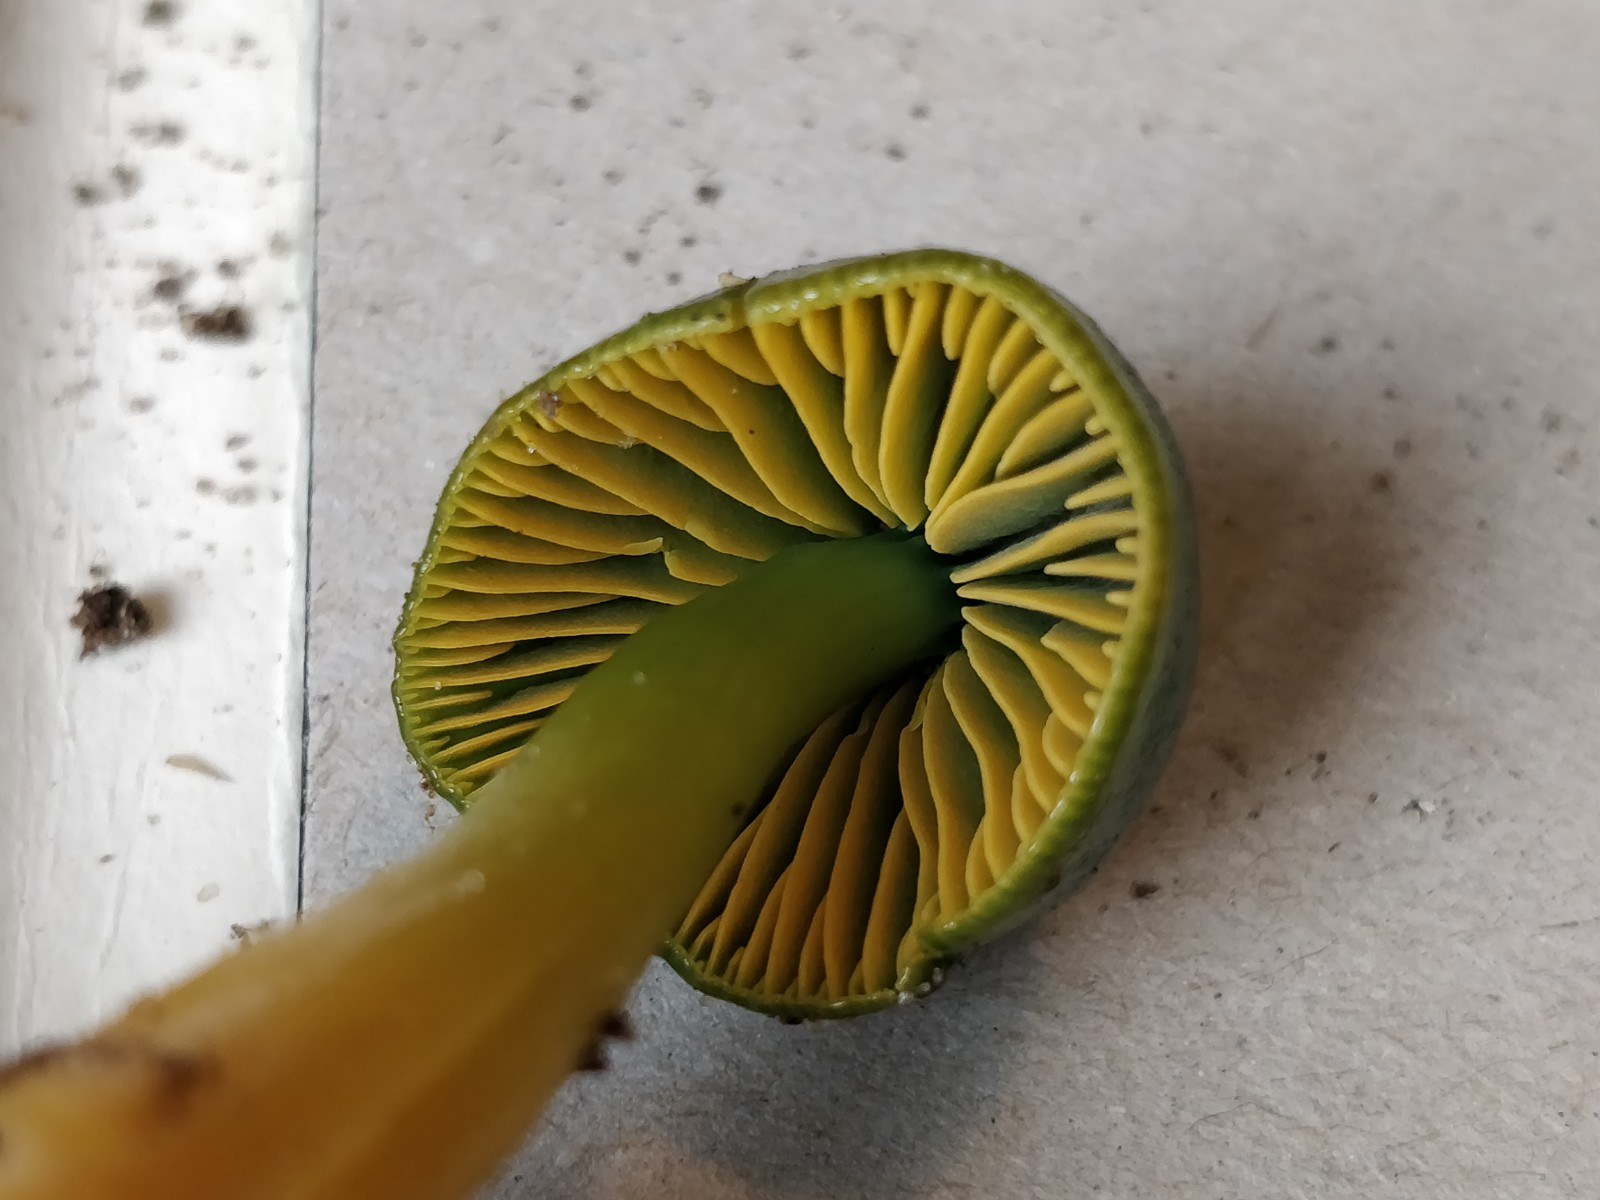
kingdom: Fungi
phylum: Basidiomycota
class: Agaricomycetes
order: Agaricales
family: Hygrophoraceae
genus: Gliophorus
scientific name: Gliophorus psittacinus
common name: papegøje-vokshat
